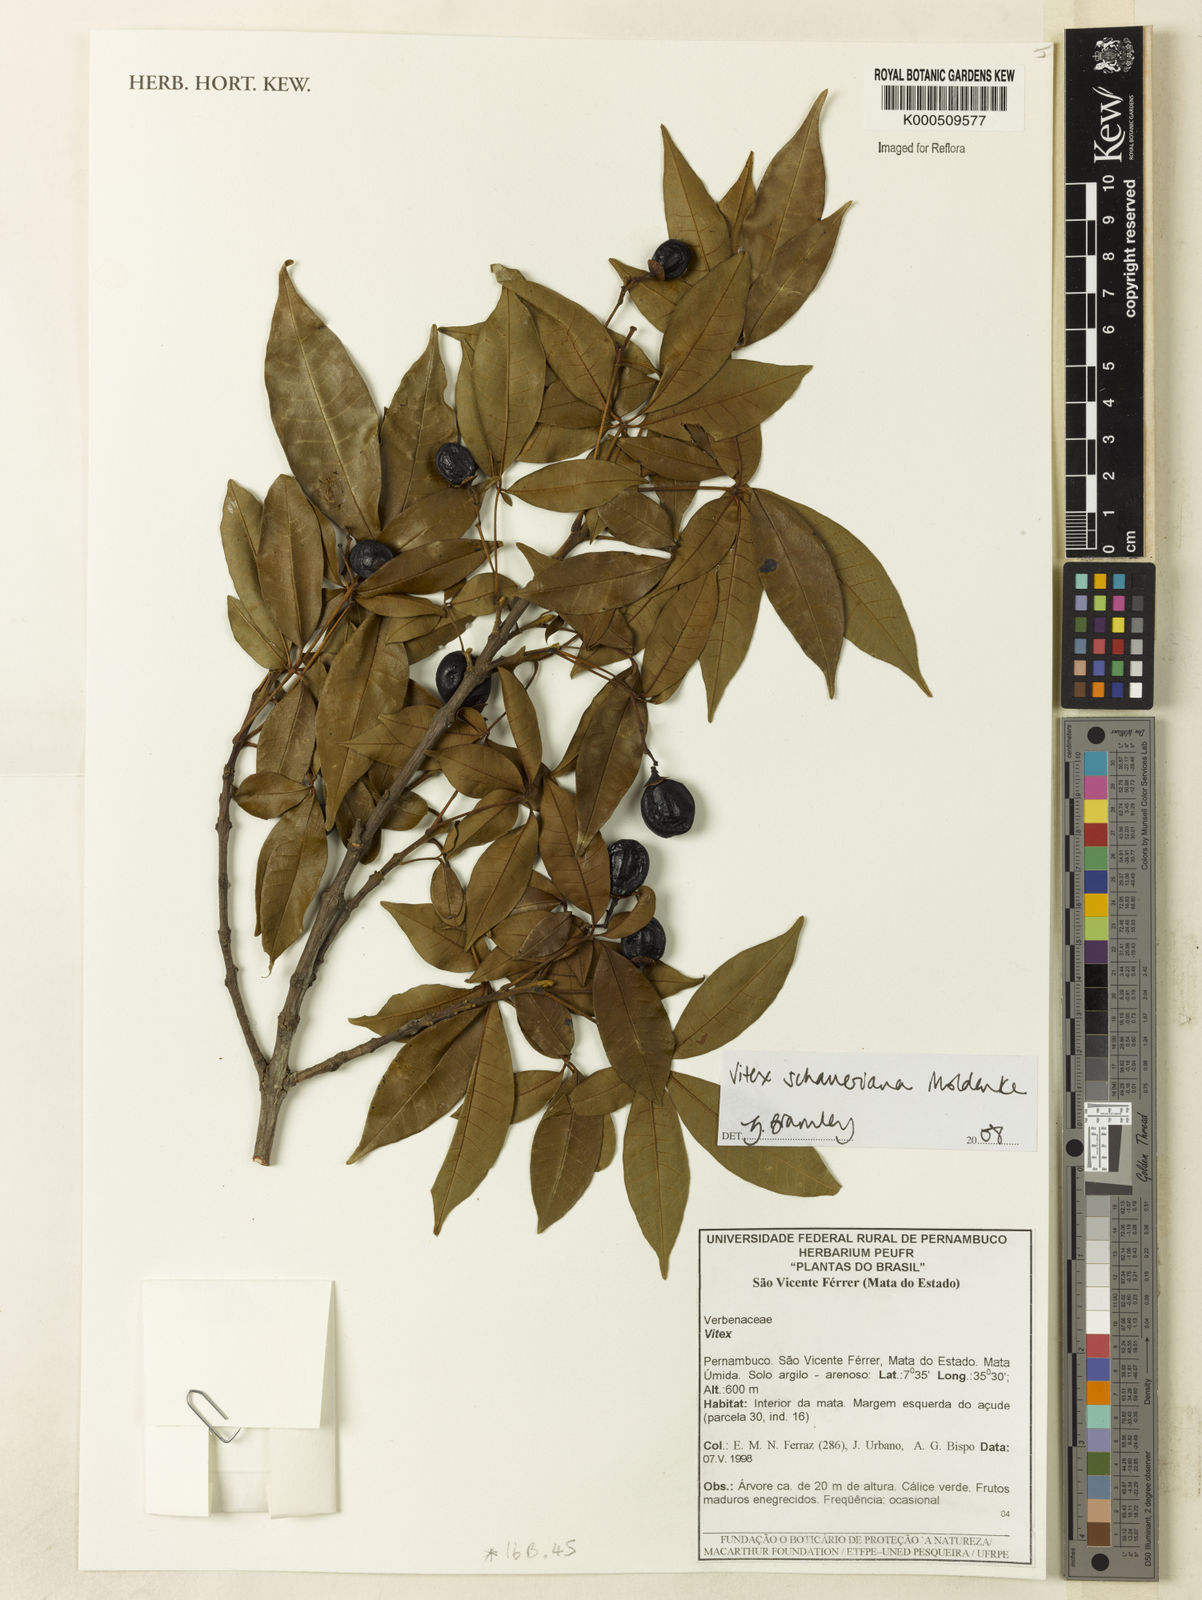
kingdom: Plantae
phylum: Tracheophyta
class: Magnoliopsida
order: Lamiales
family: Lamiaceae
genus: Vitex
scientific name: Vitex schaueriana
